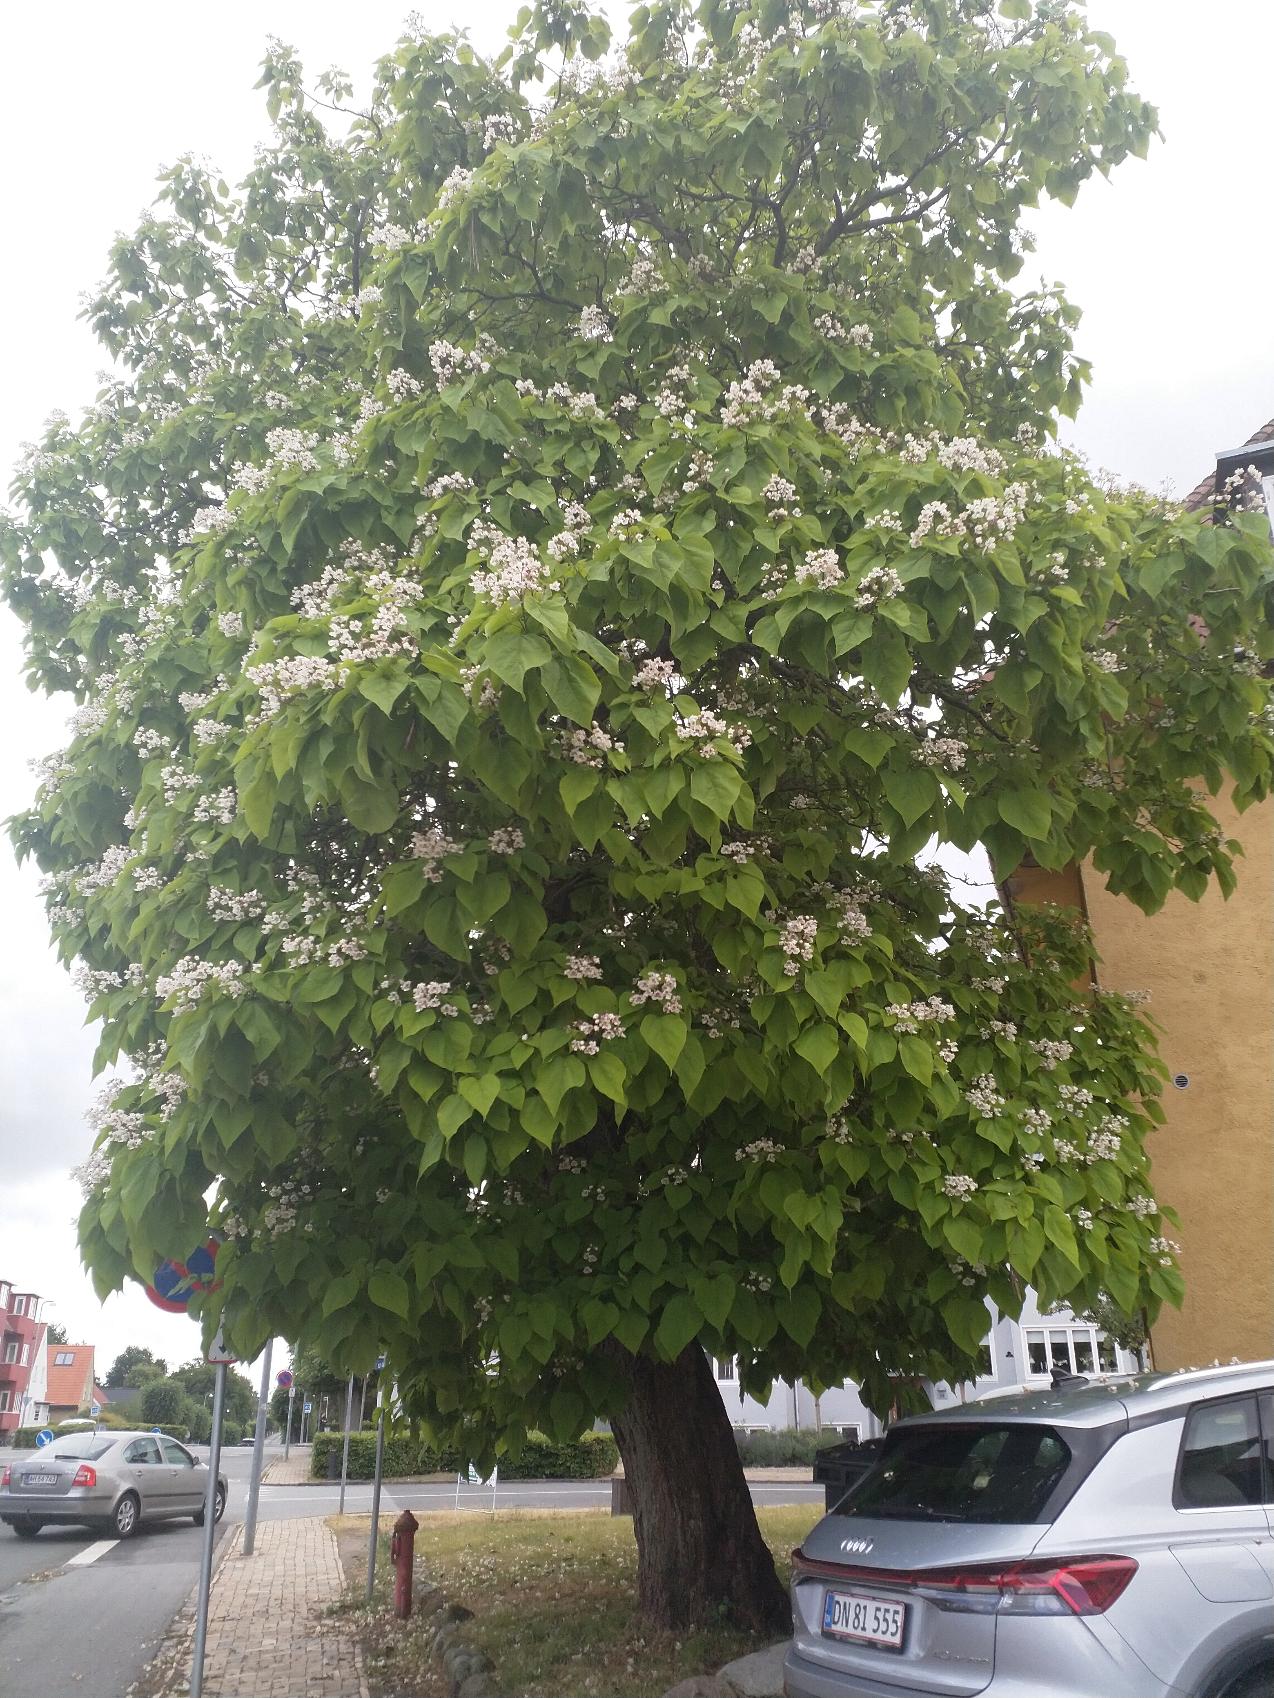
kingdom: Plantae
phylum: Tracheophyta
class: Magnoliopsida
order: Lamiales
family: Bignoniaceae
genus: Catalpa
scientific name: Catalpa
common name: Trompetkroneslægten
